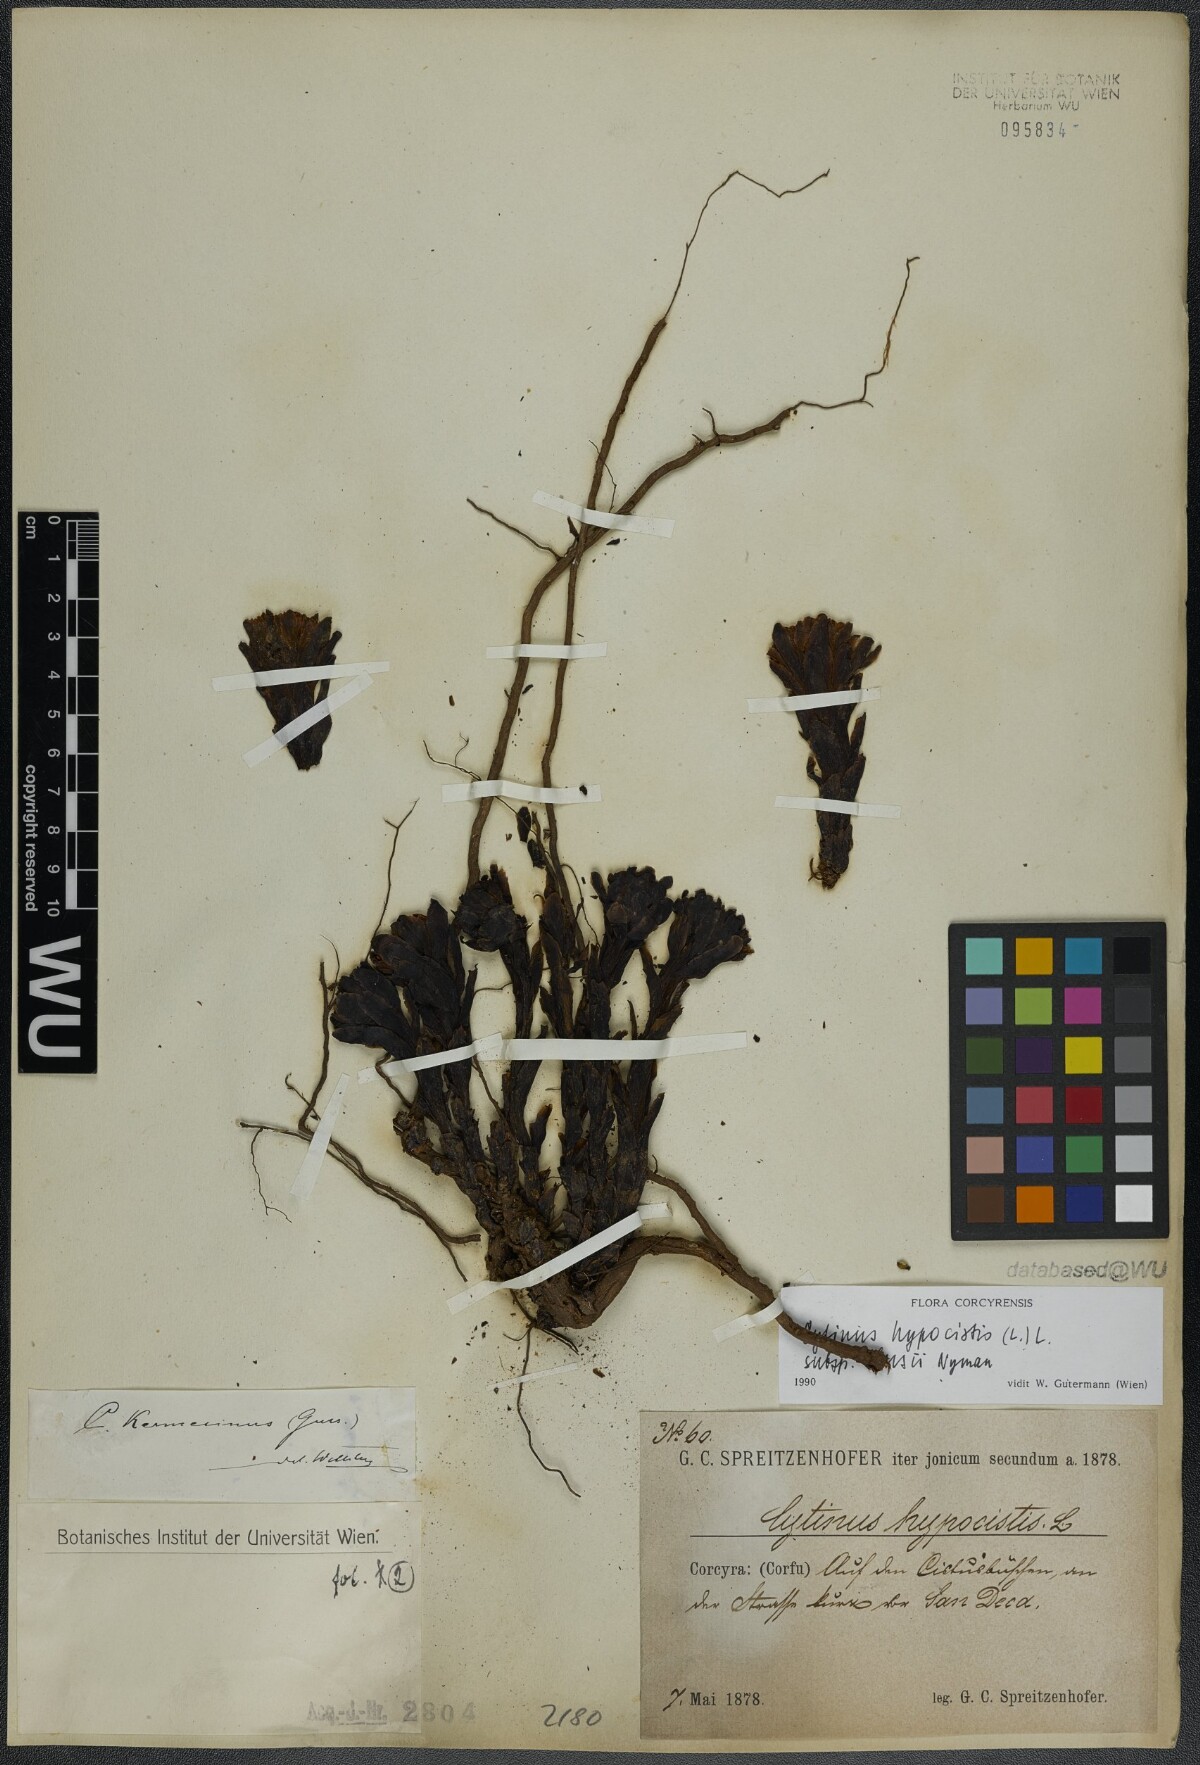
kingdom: Plantae
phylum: Tracheophyta
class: Magnoliopsida
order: Malvales
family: Cytinaceae
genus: Cytinus
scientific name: Cytinus ruber
